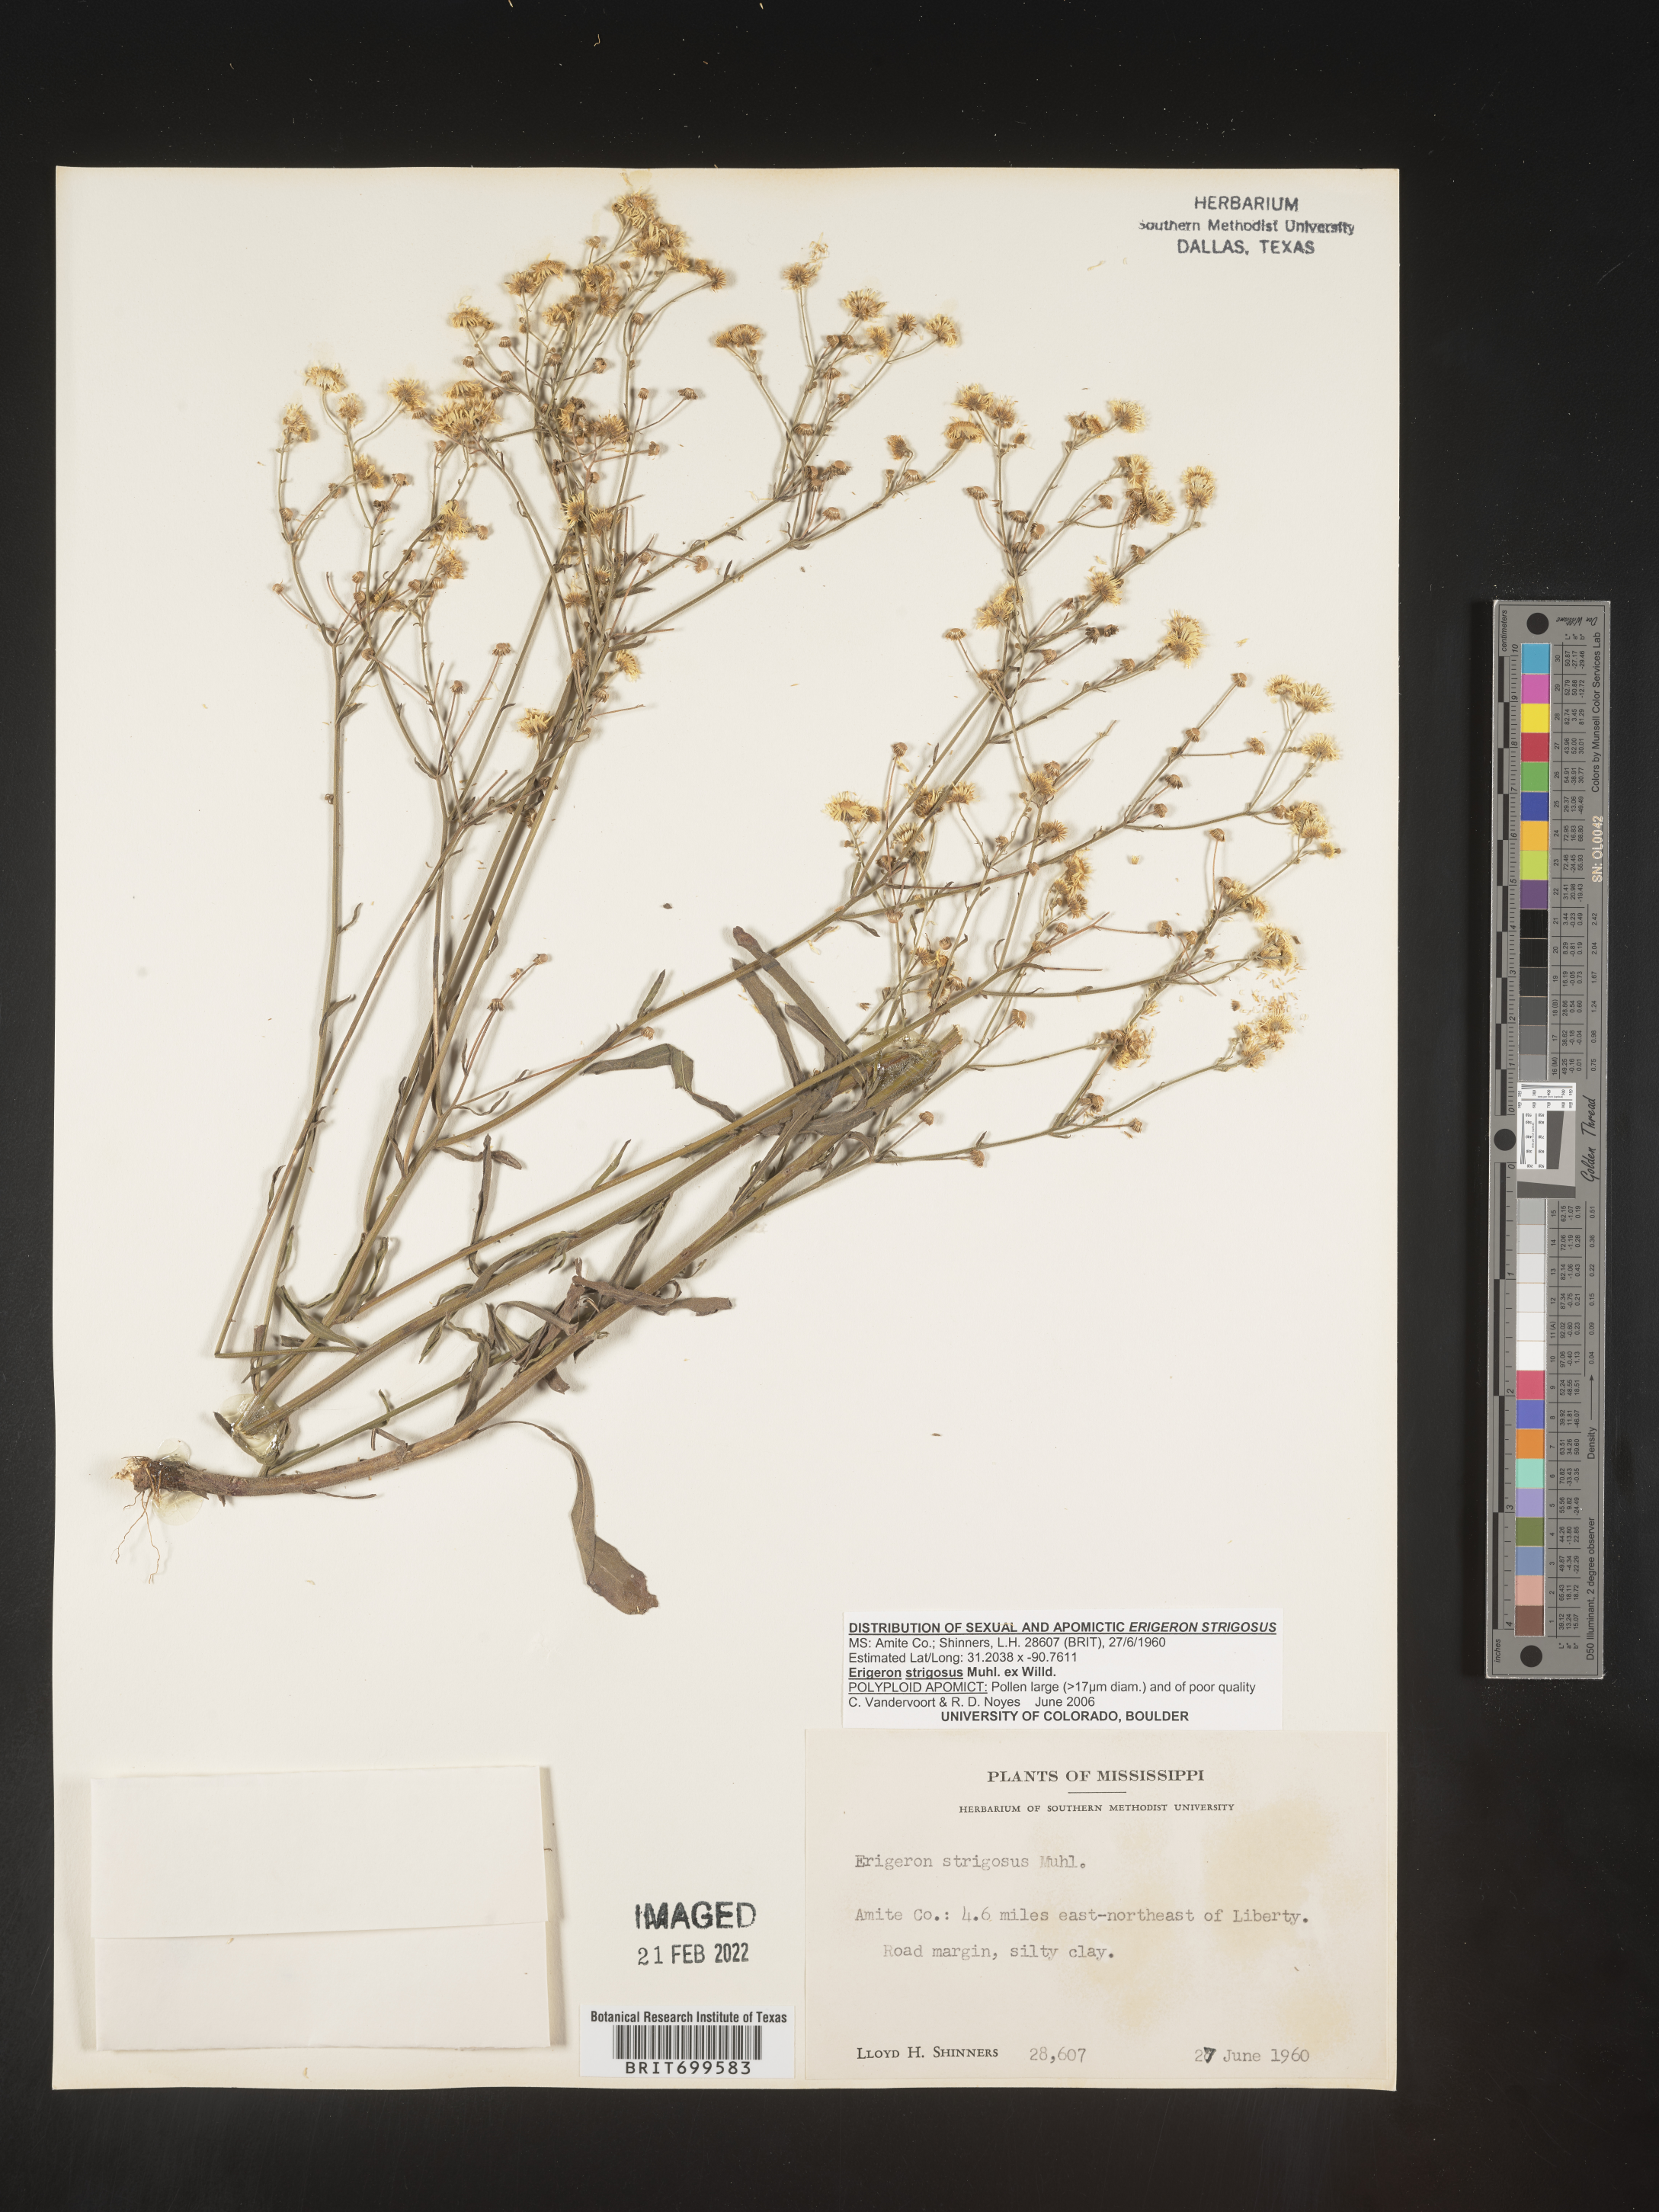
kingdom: Plantae
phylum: Tracheophyta
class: Magnoliopsida
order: Asterales
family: Asteraceae
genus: Erigeron
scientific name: Erigeron strigosus
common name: Common eastern fleabane
